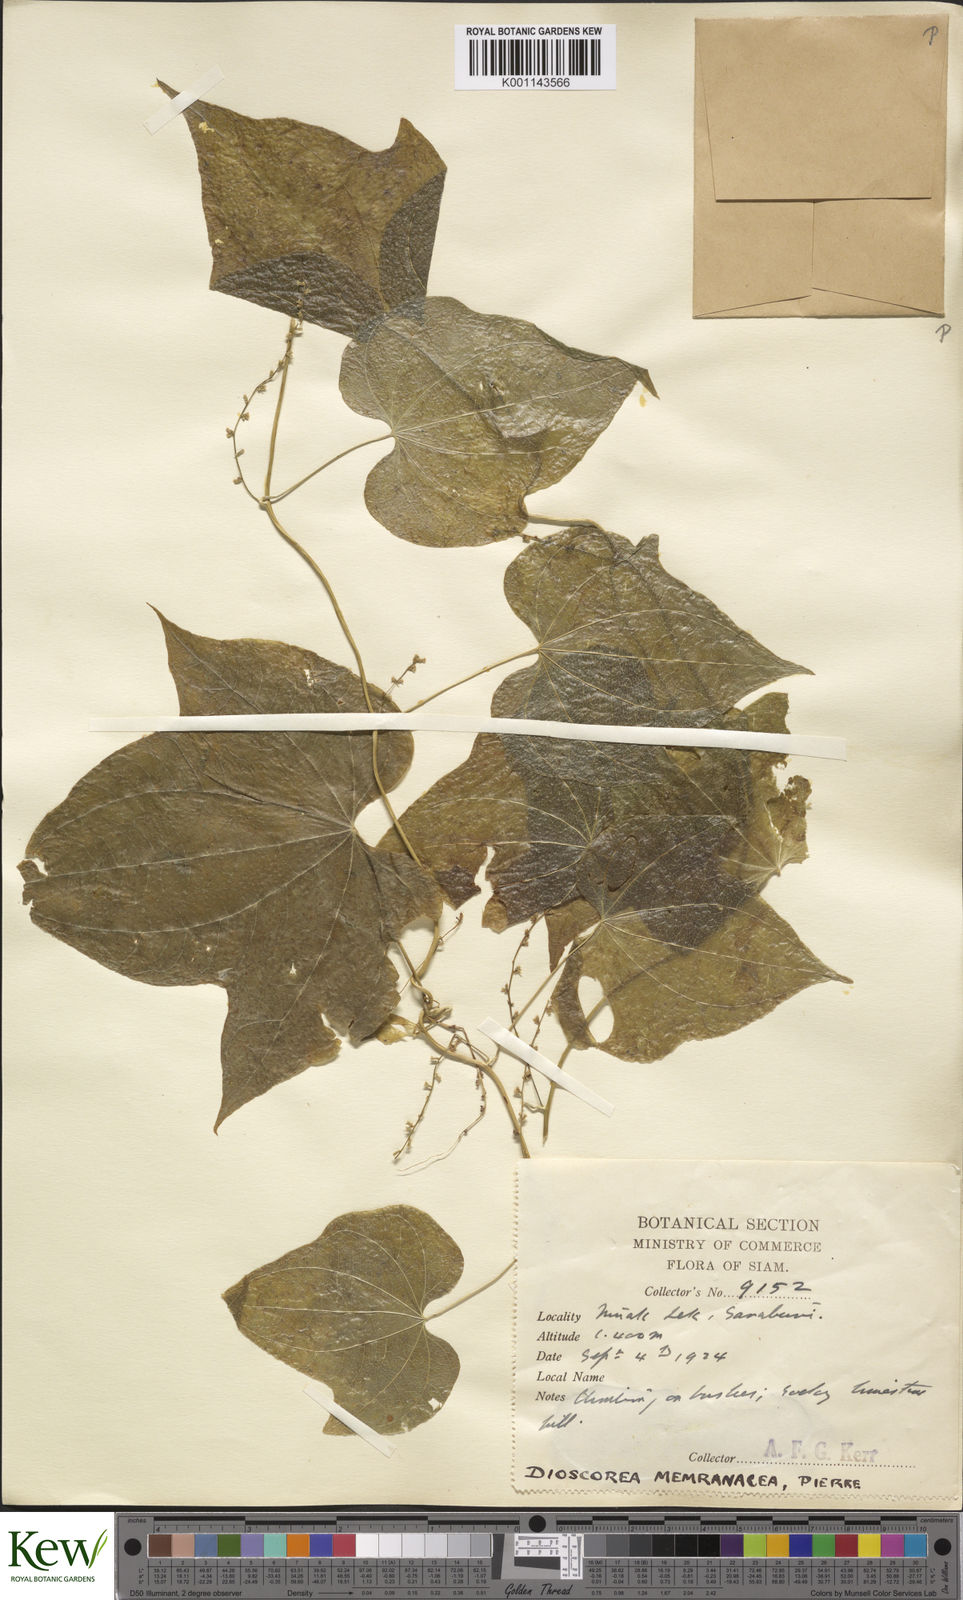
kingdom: Plantae
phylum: Tracheophyta
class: Liliopsida
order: Dioscoreales
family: Dioscoreaceae
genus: Dioscorea
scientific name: Dioscorea membranacea
